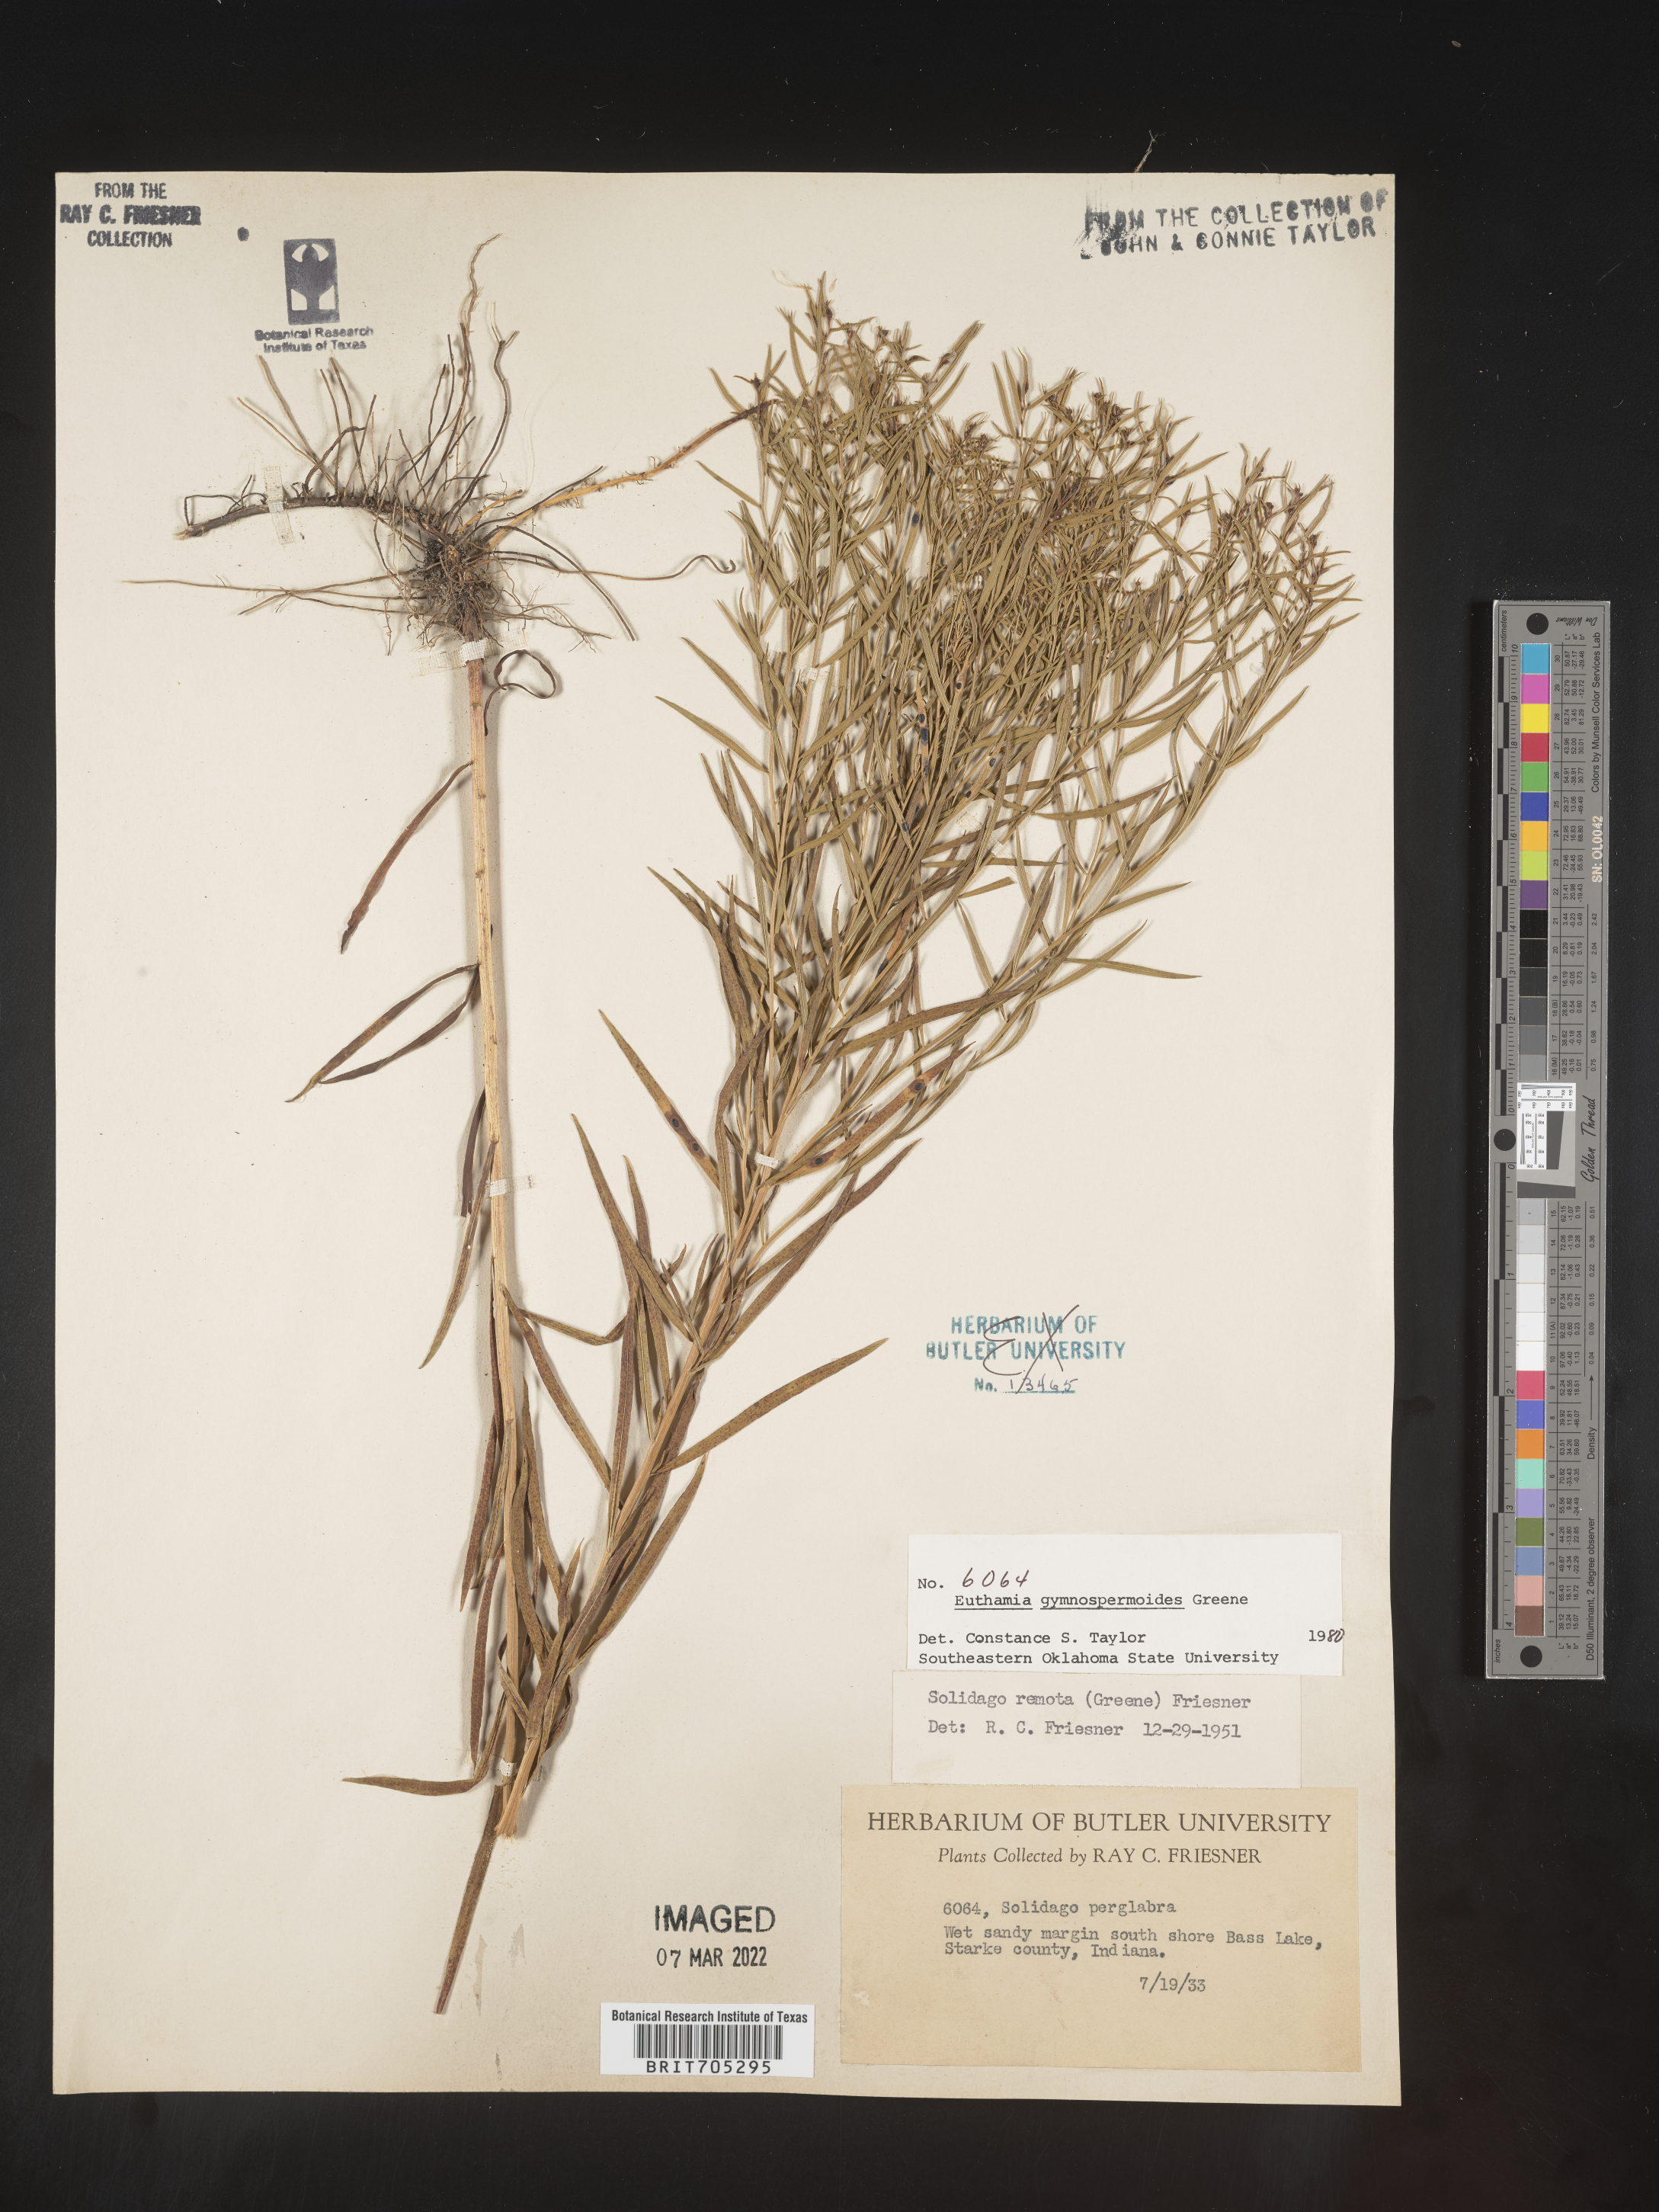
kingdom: Plantae
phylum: Tracheophyta
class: Magnoliopsida
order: Asterales
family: Asteraceae
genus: Euthamia
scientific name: Euthamia gymnospermoides
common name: Great plains goldentop
